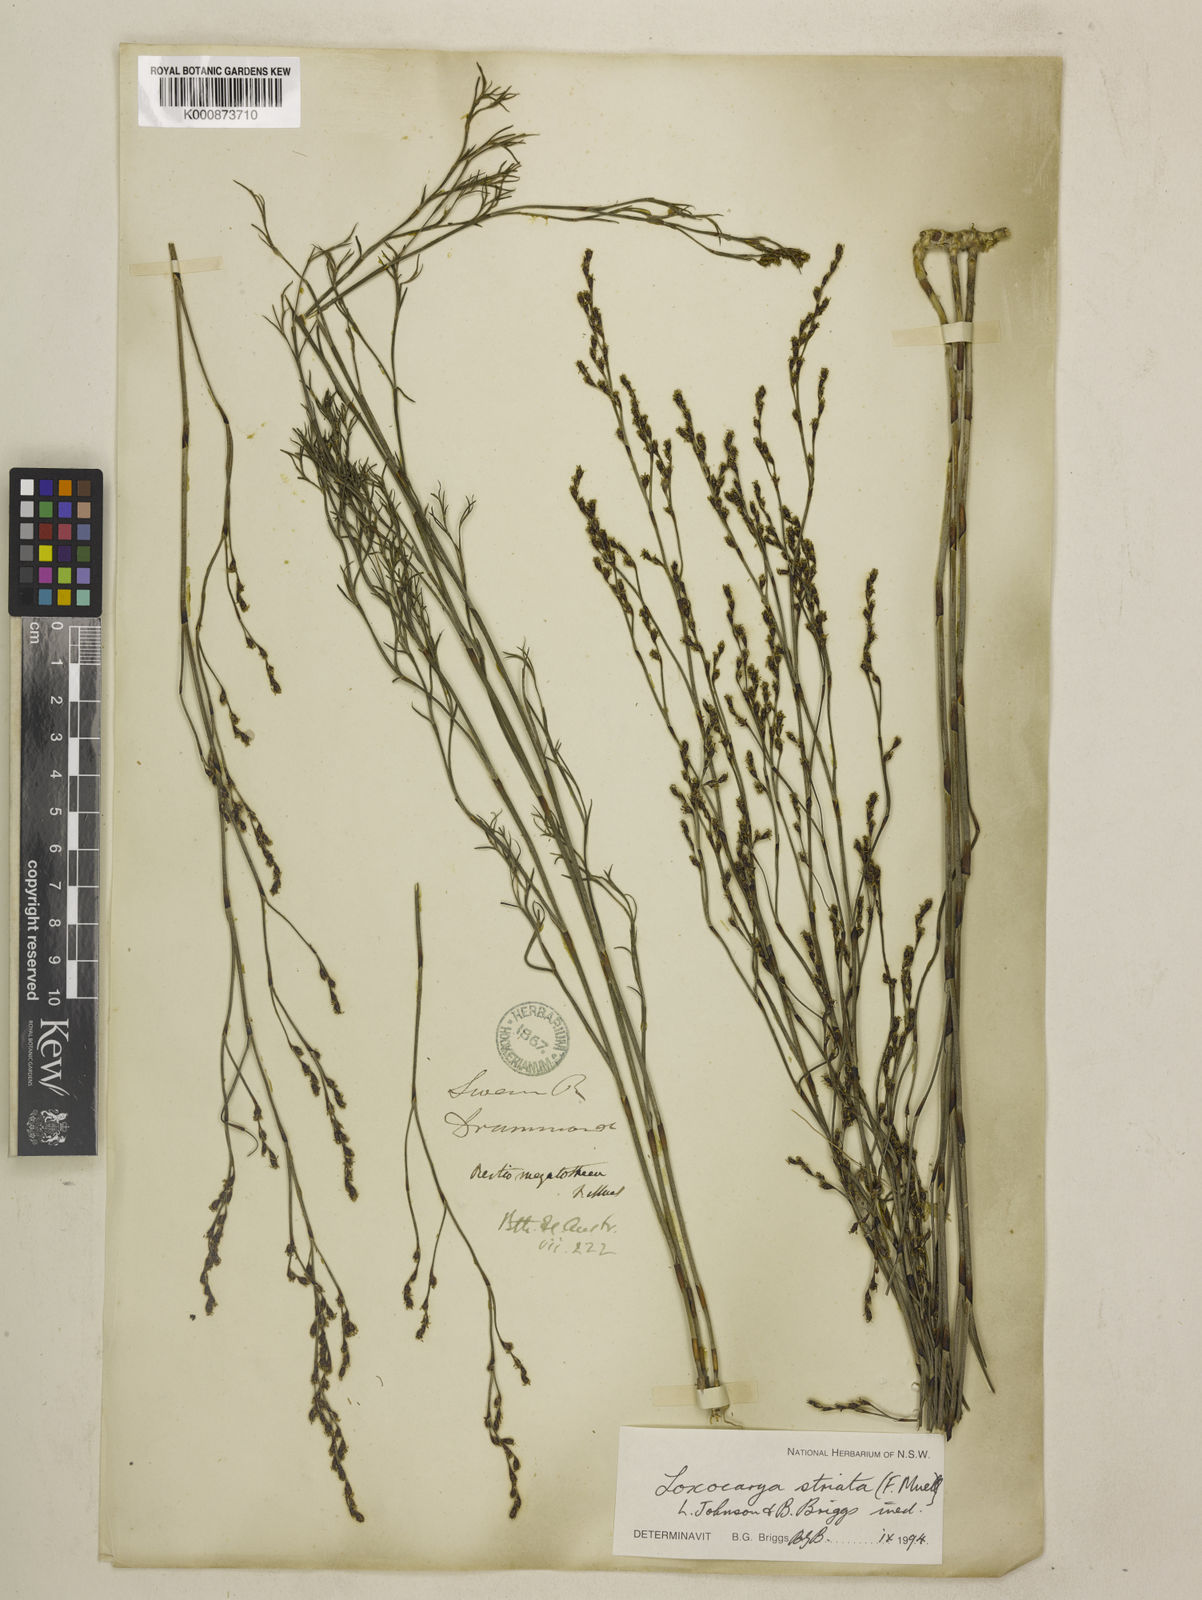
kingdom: Plantae
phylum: Tracheophyta
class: Liliopsida
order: Poales
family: Restionaceae
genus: Loxocarya
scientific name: Loxocarya striata
